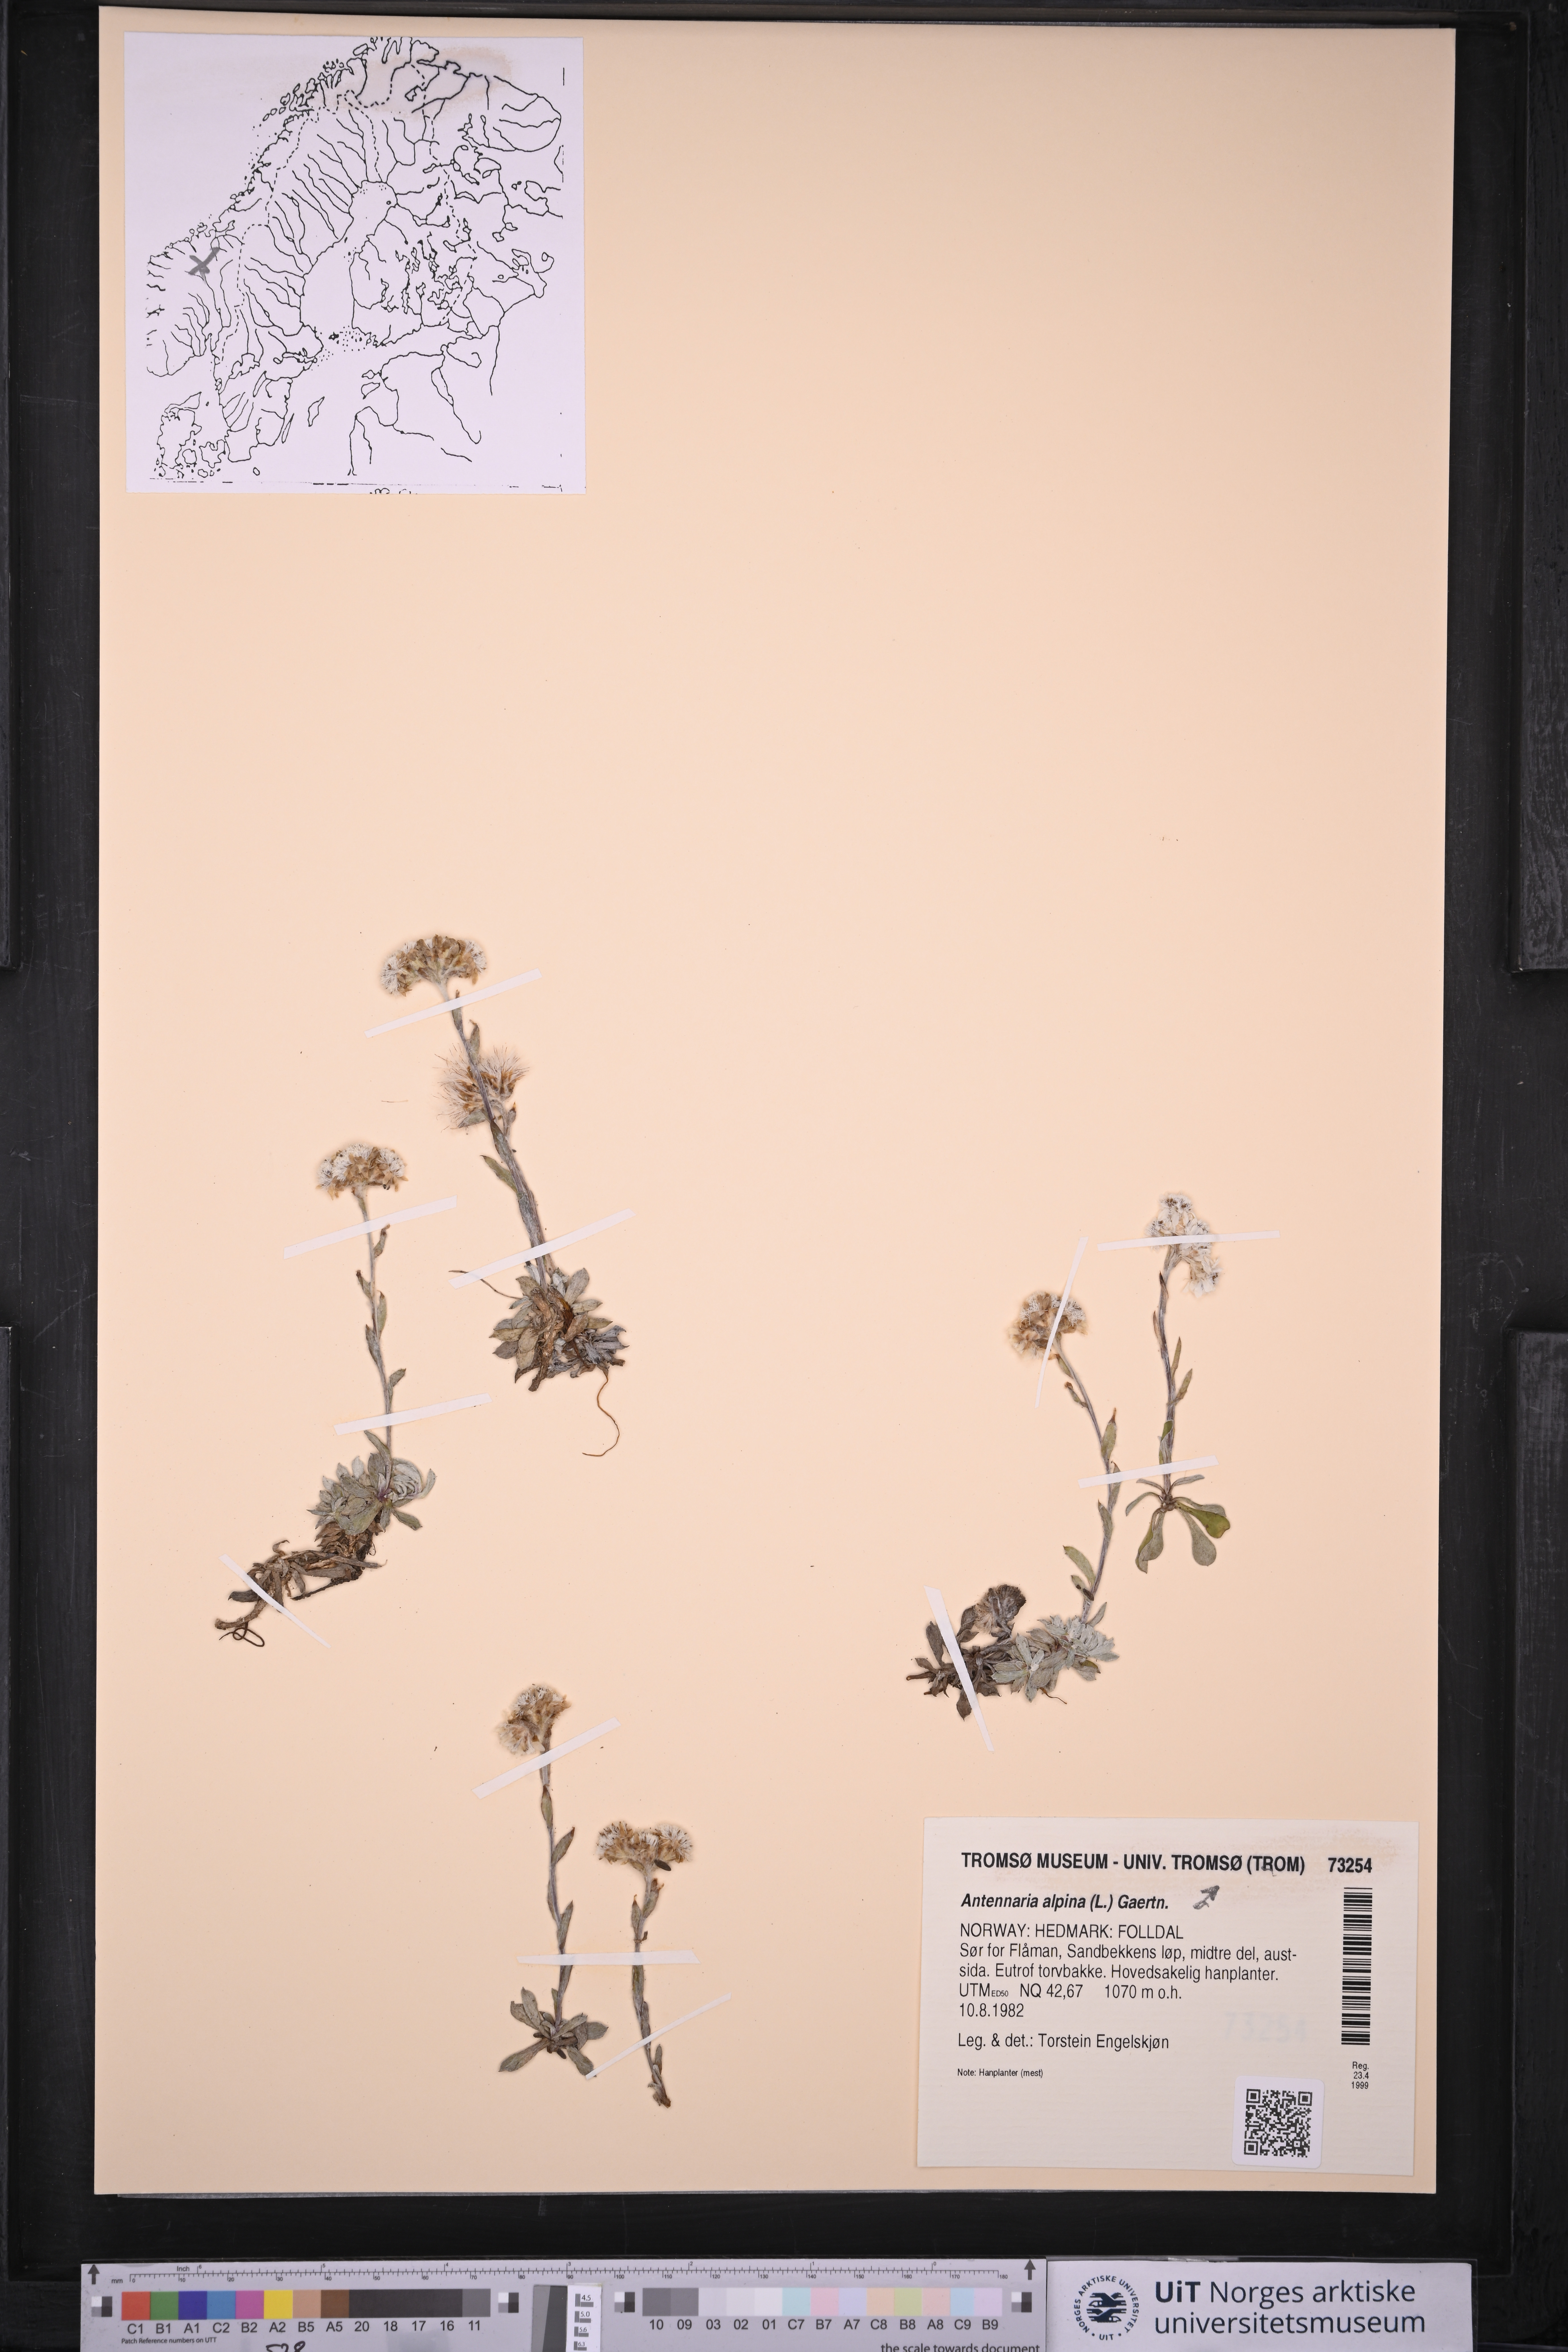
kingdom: Plantae
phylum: Tracheophyta
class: Magnoliopsida
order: Asterales
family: Asteraceae
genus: Antennaria
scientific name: Antennaria alpina
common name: Alpine pussytoes
